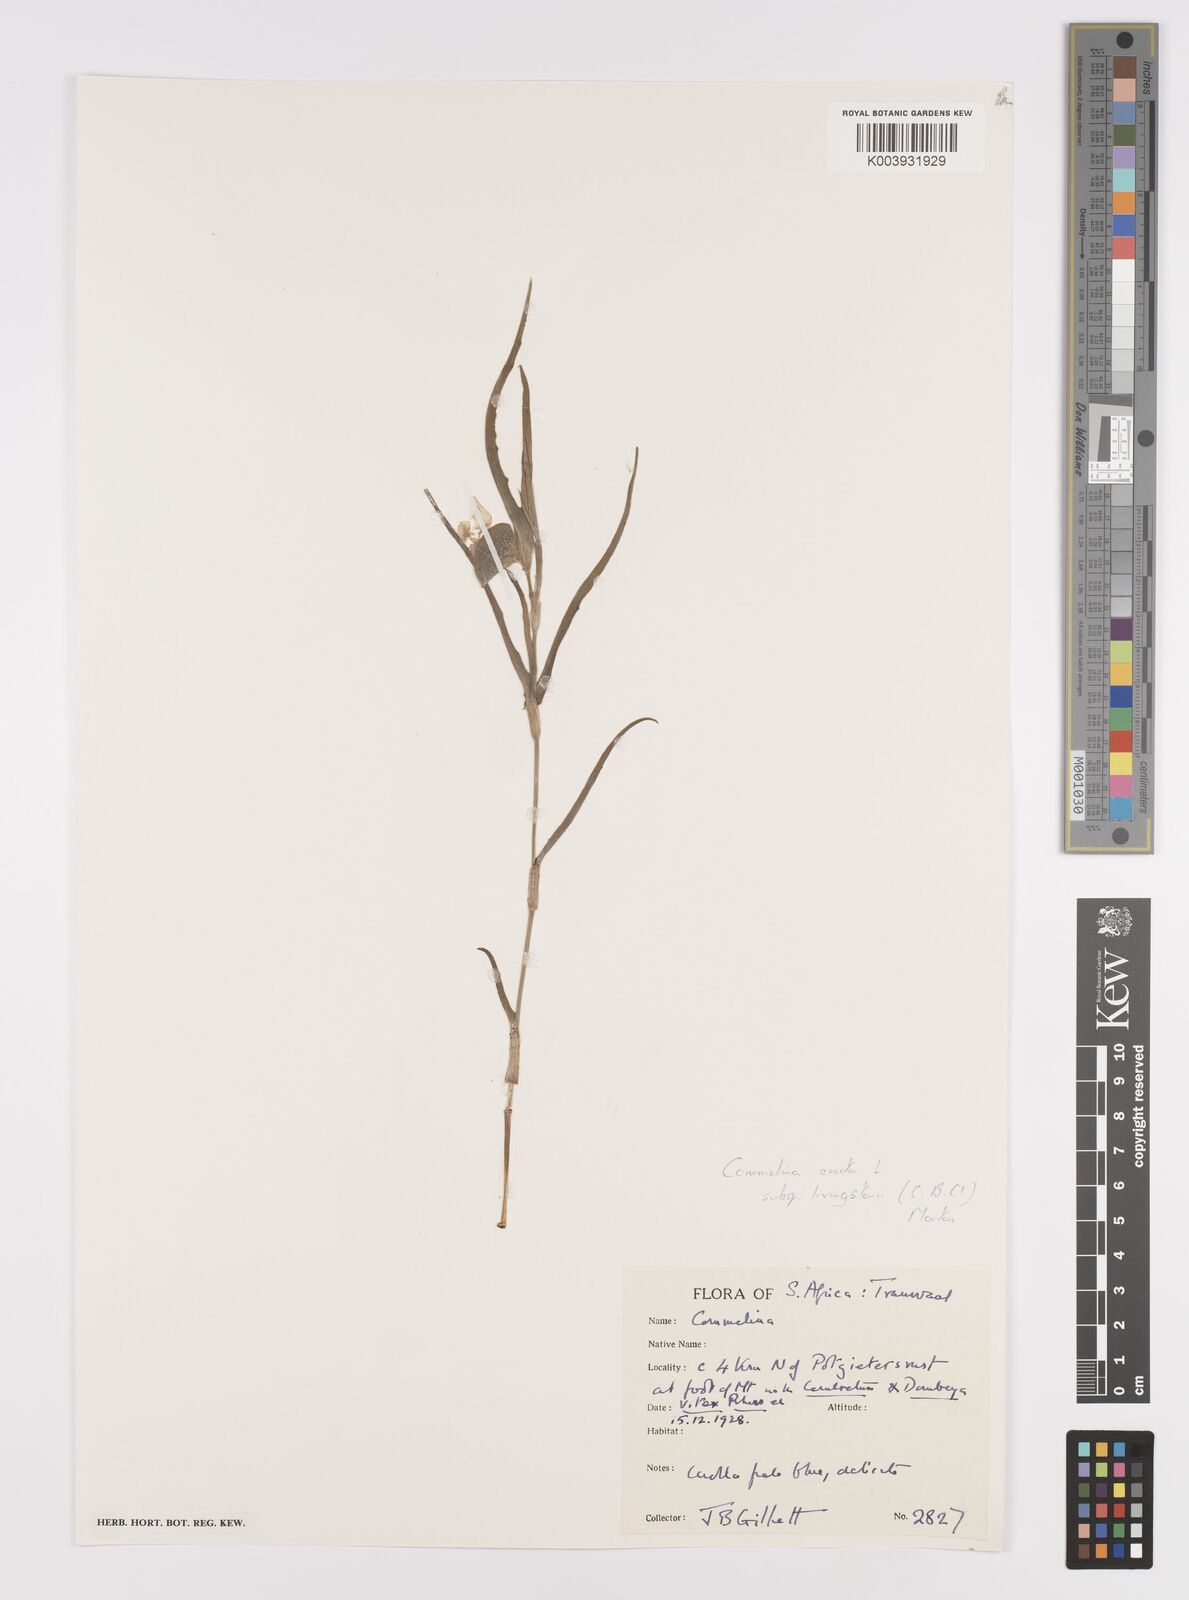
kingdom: Plantae
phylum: Tracheophyta
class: Liliopsida
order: Commelinales
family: Commelinaceae
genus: Commelina
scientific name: Commelina erecta
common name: Blousel blommetjie
